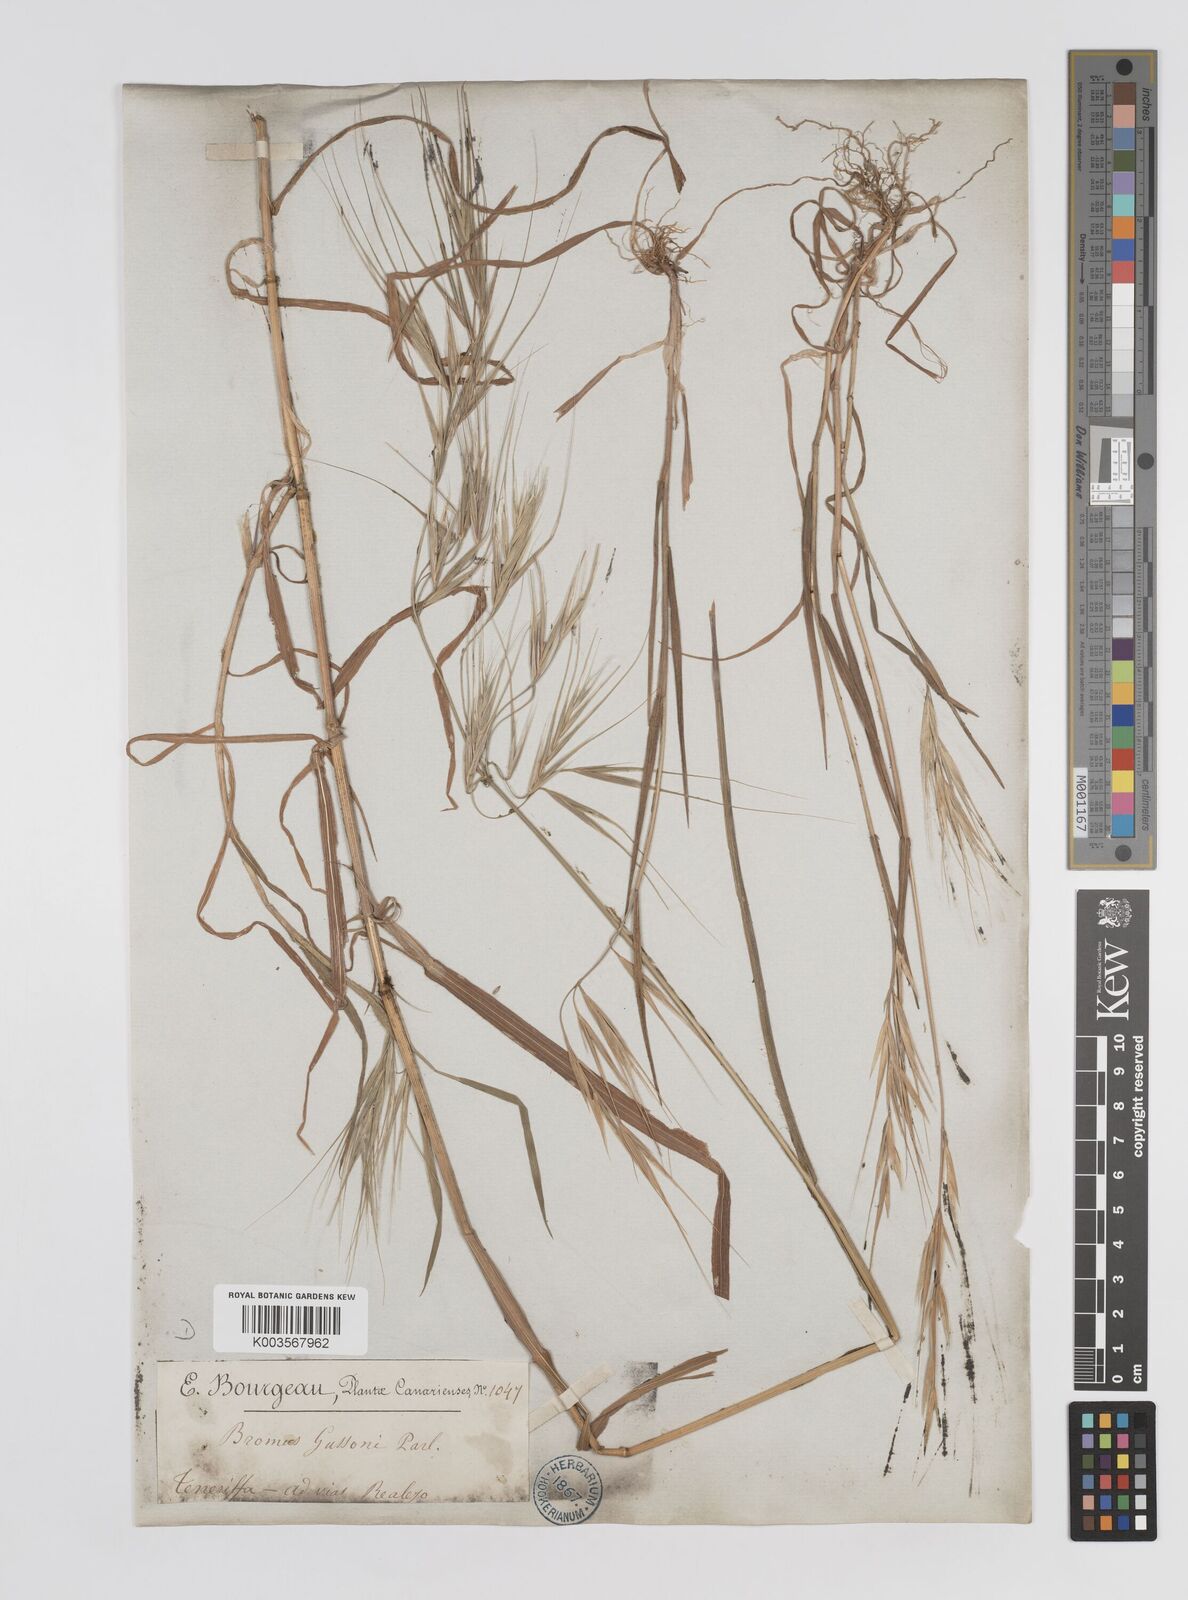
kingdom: Plantae
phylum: Tracheophyta
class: Liliopsida
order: Poales
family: Poaceae
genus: Bromus
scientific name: Bromus diandrus
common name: Ripgut brome
